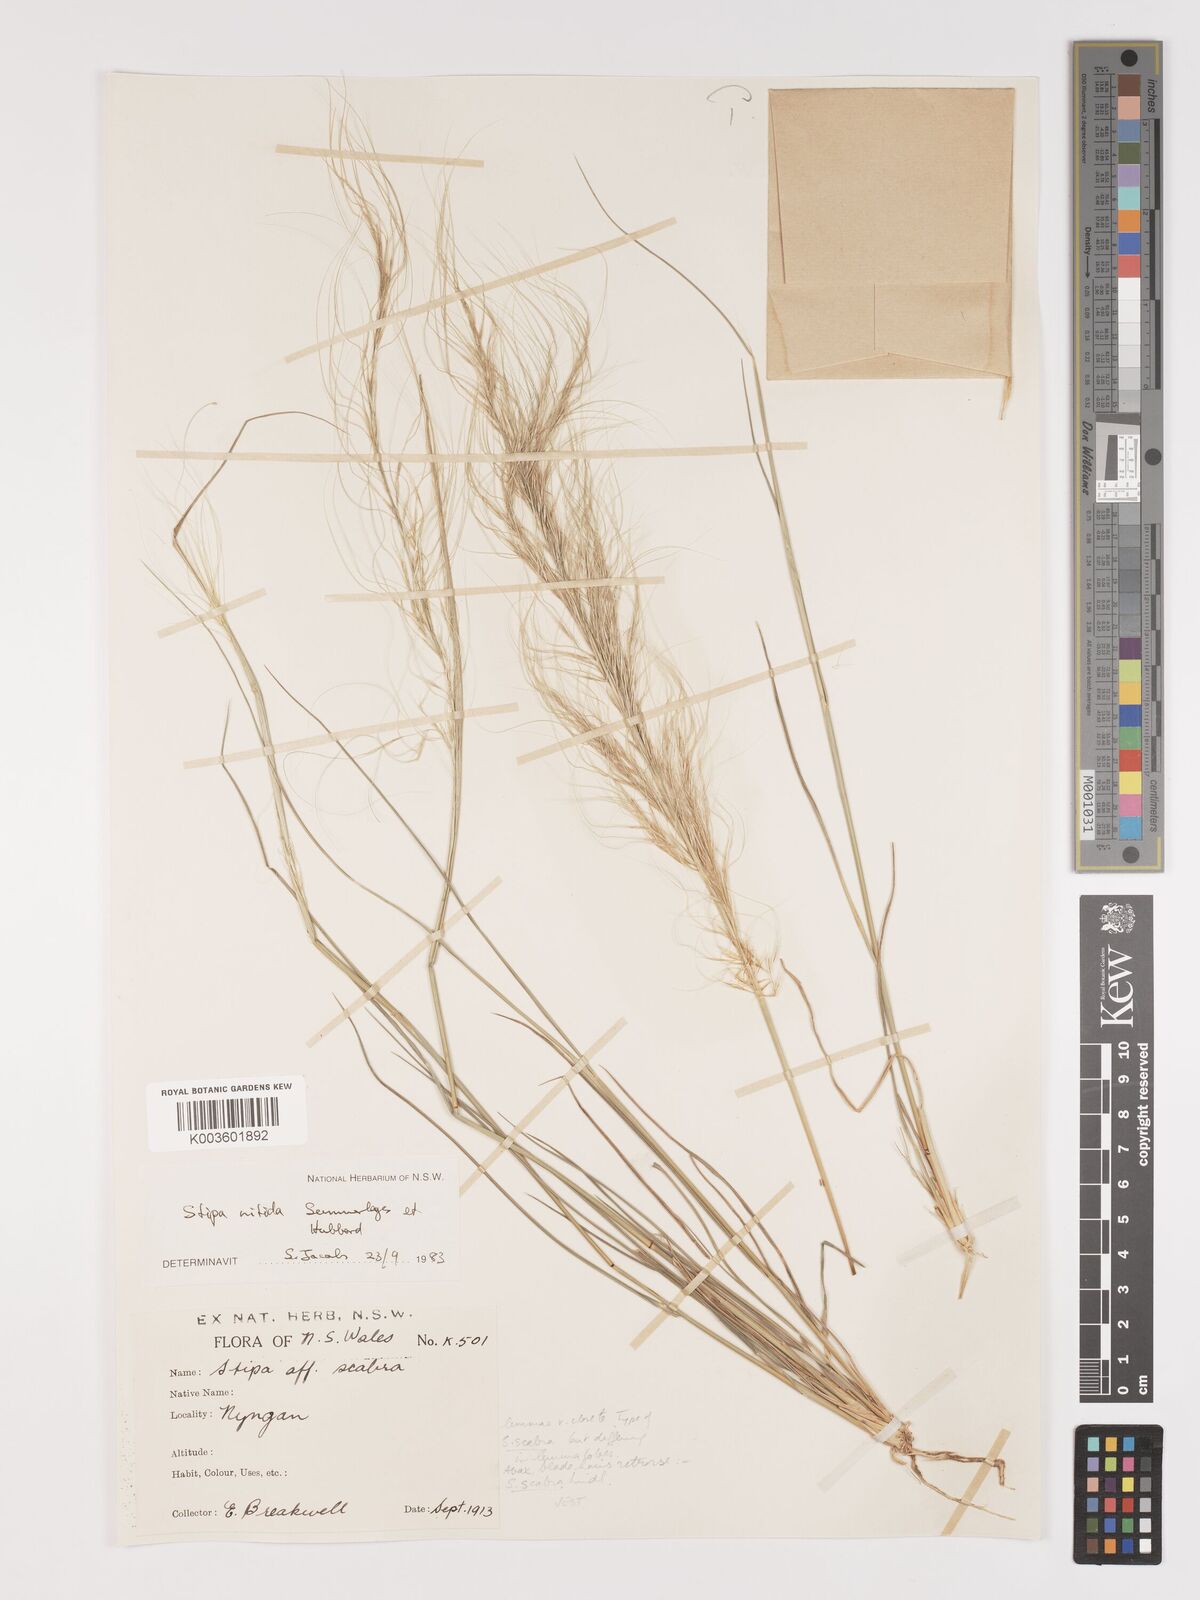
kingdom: Plantae
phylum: Tracheophyta
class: Liliopsida
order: Poales
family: Poaceae
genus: Austrostipa
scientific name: Austrostipa nitida
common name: Balcarra grass
